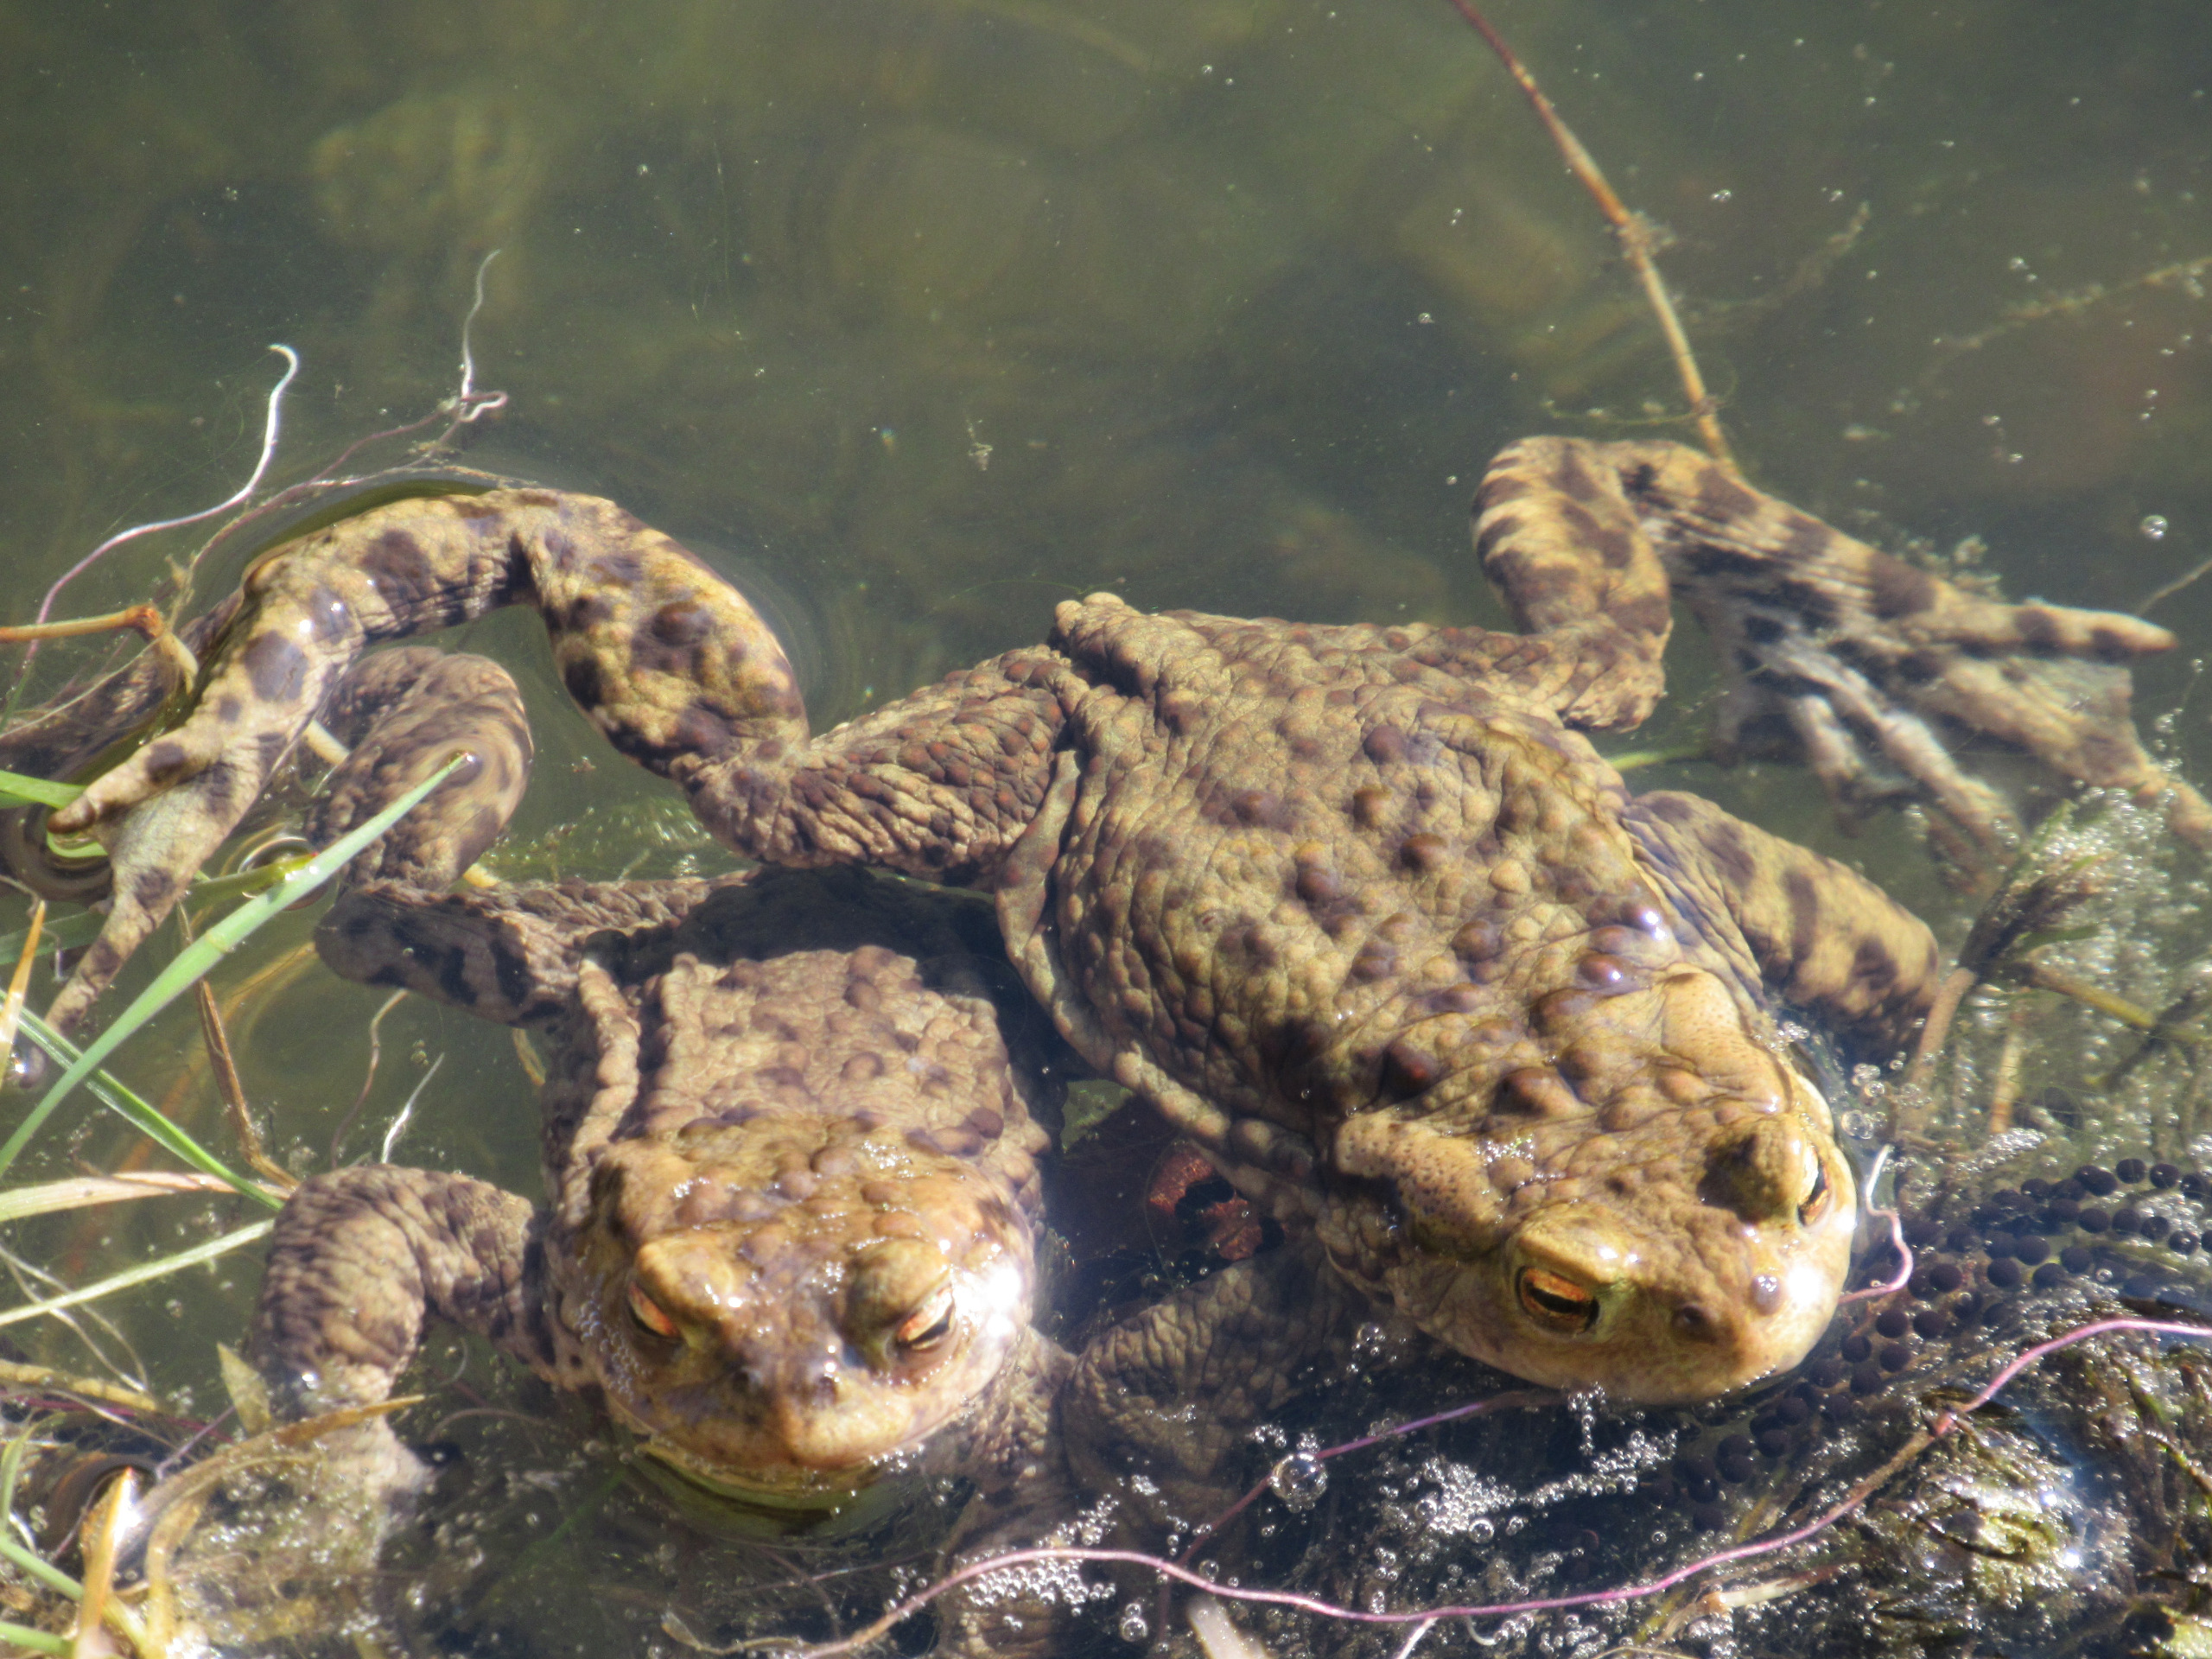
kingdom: Animalia
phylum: Chordata
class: Amphibia
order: Anura
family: Bufonidae
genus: Bufo
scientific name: Bufo bufo
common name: Skrubtudse
